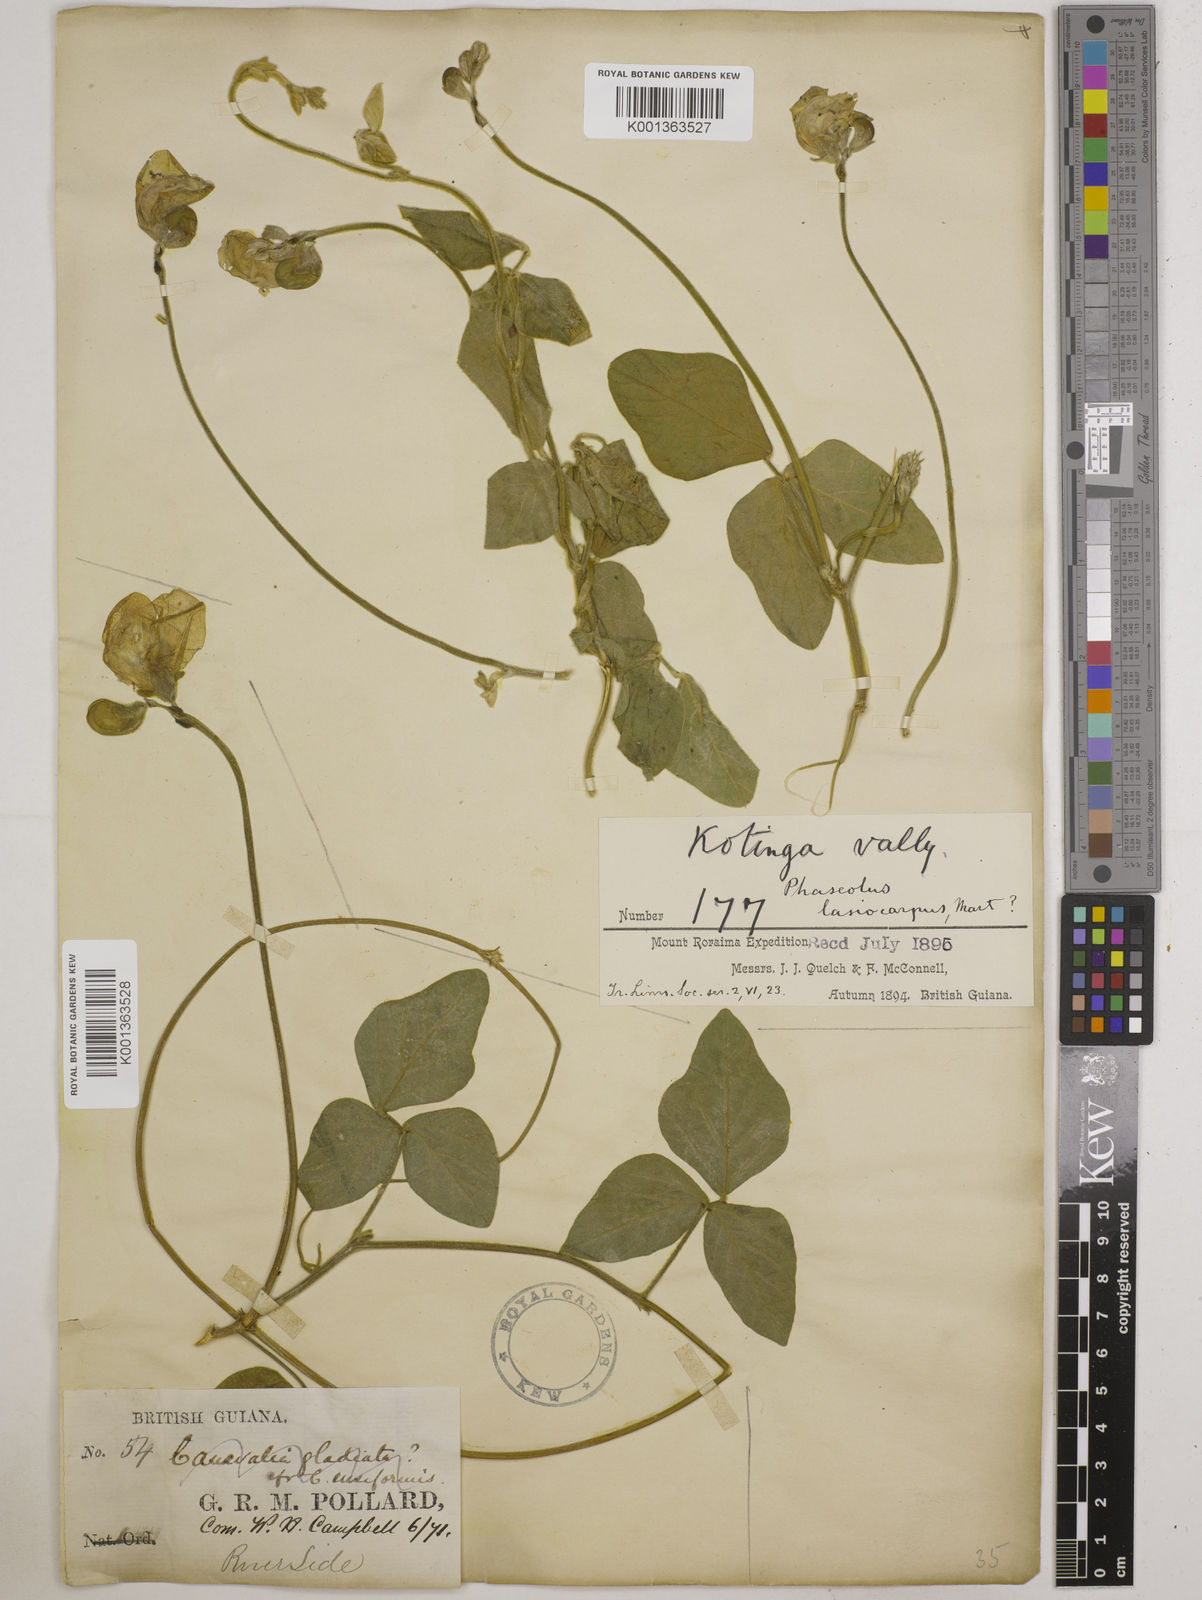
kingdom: Plantae
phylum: Tracheophyta
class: Magnoliopsida
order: Fabales
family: Fabaceae
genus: Vigna
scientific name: Vigna lasiocarpa
